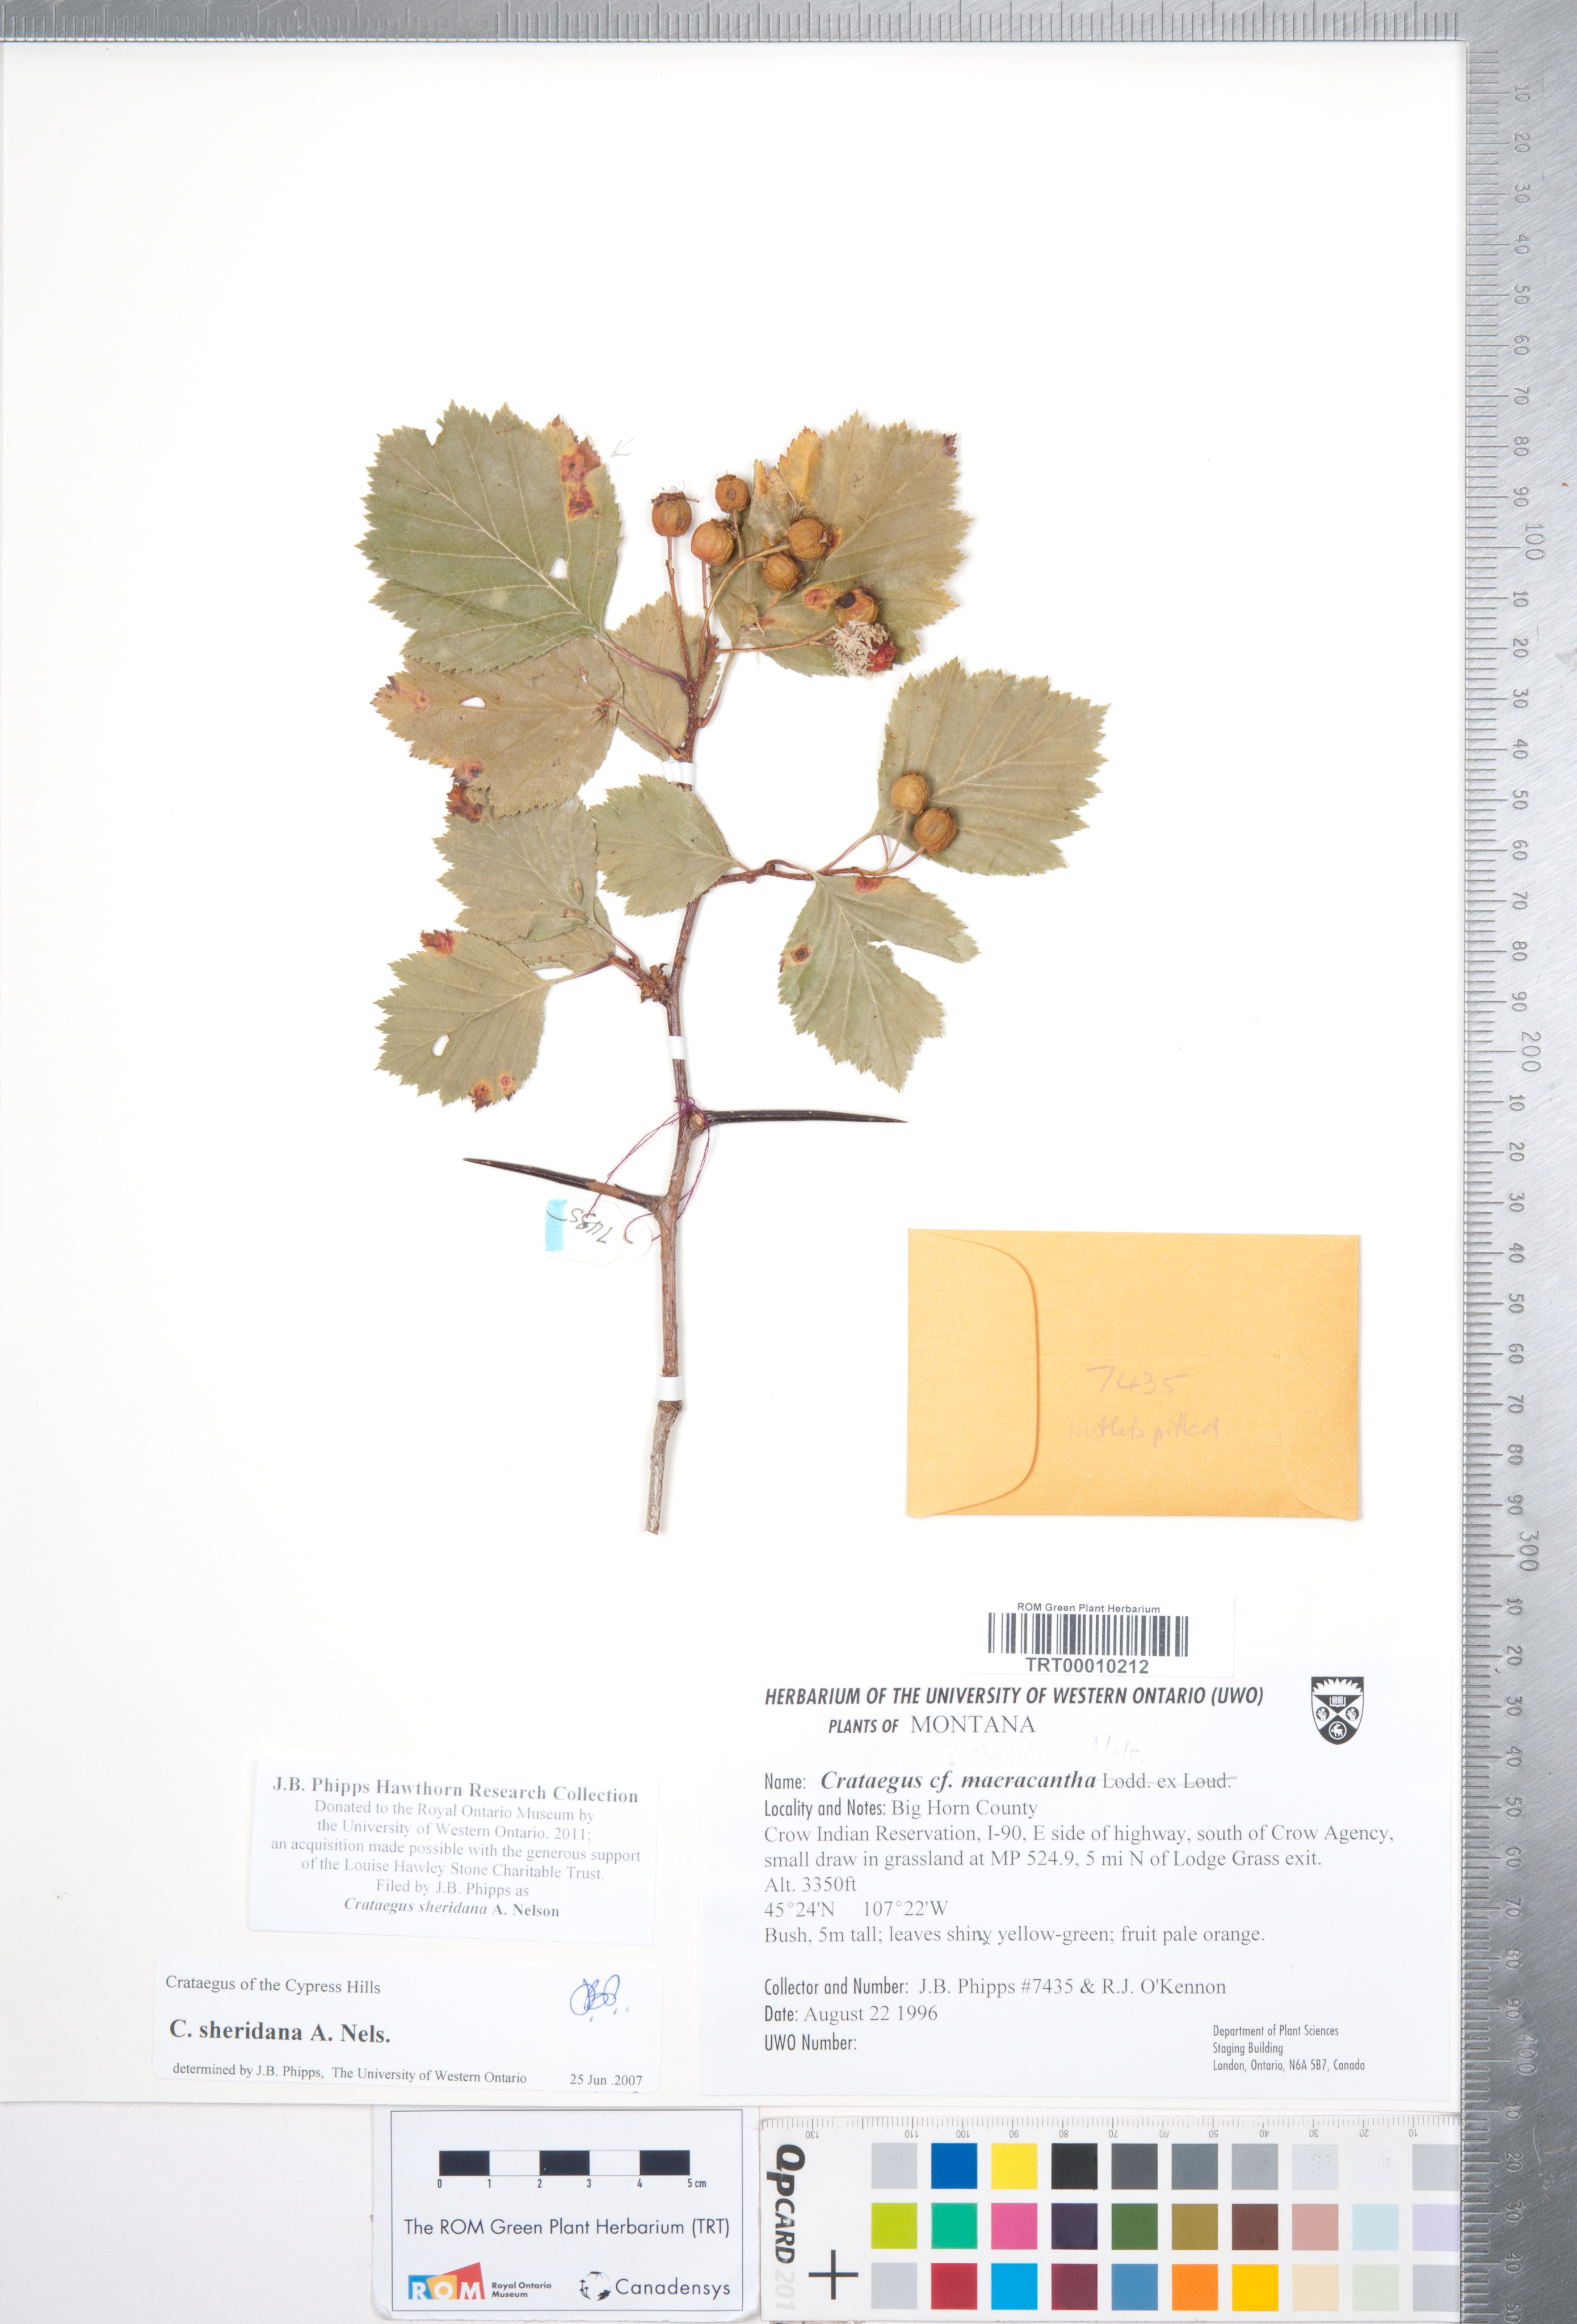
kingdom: Plantae
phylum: Tracheophyta
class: Magnoliopsida
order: Rosales
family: Rosaceae
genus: Crataegus
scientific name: Crataegus chrysocarpa
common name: Fire-berry hawthorn
